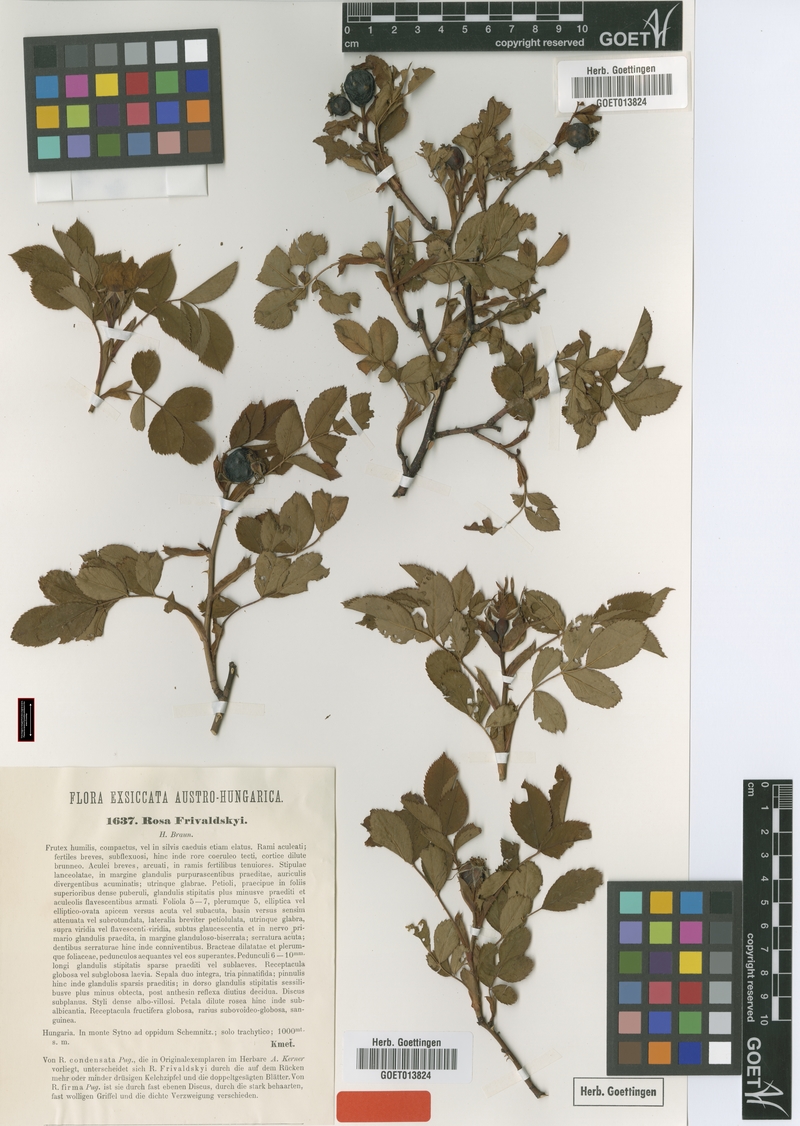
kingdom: Plantae
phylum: Tracheophyta
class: Magnoliopsida
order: Rosales
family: Rosaceae
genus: Rosa
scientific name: Rosa canina
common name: Dog rose
